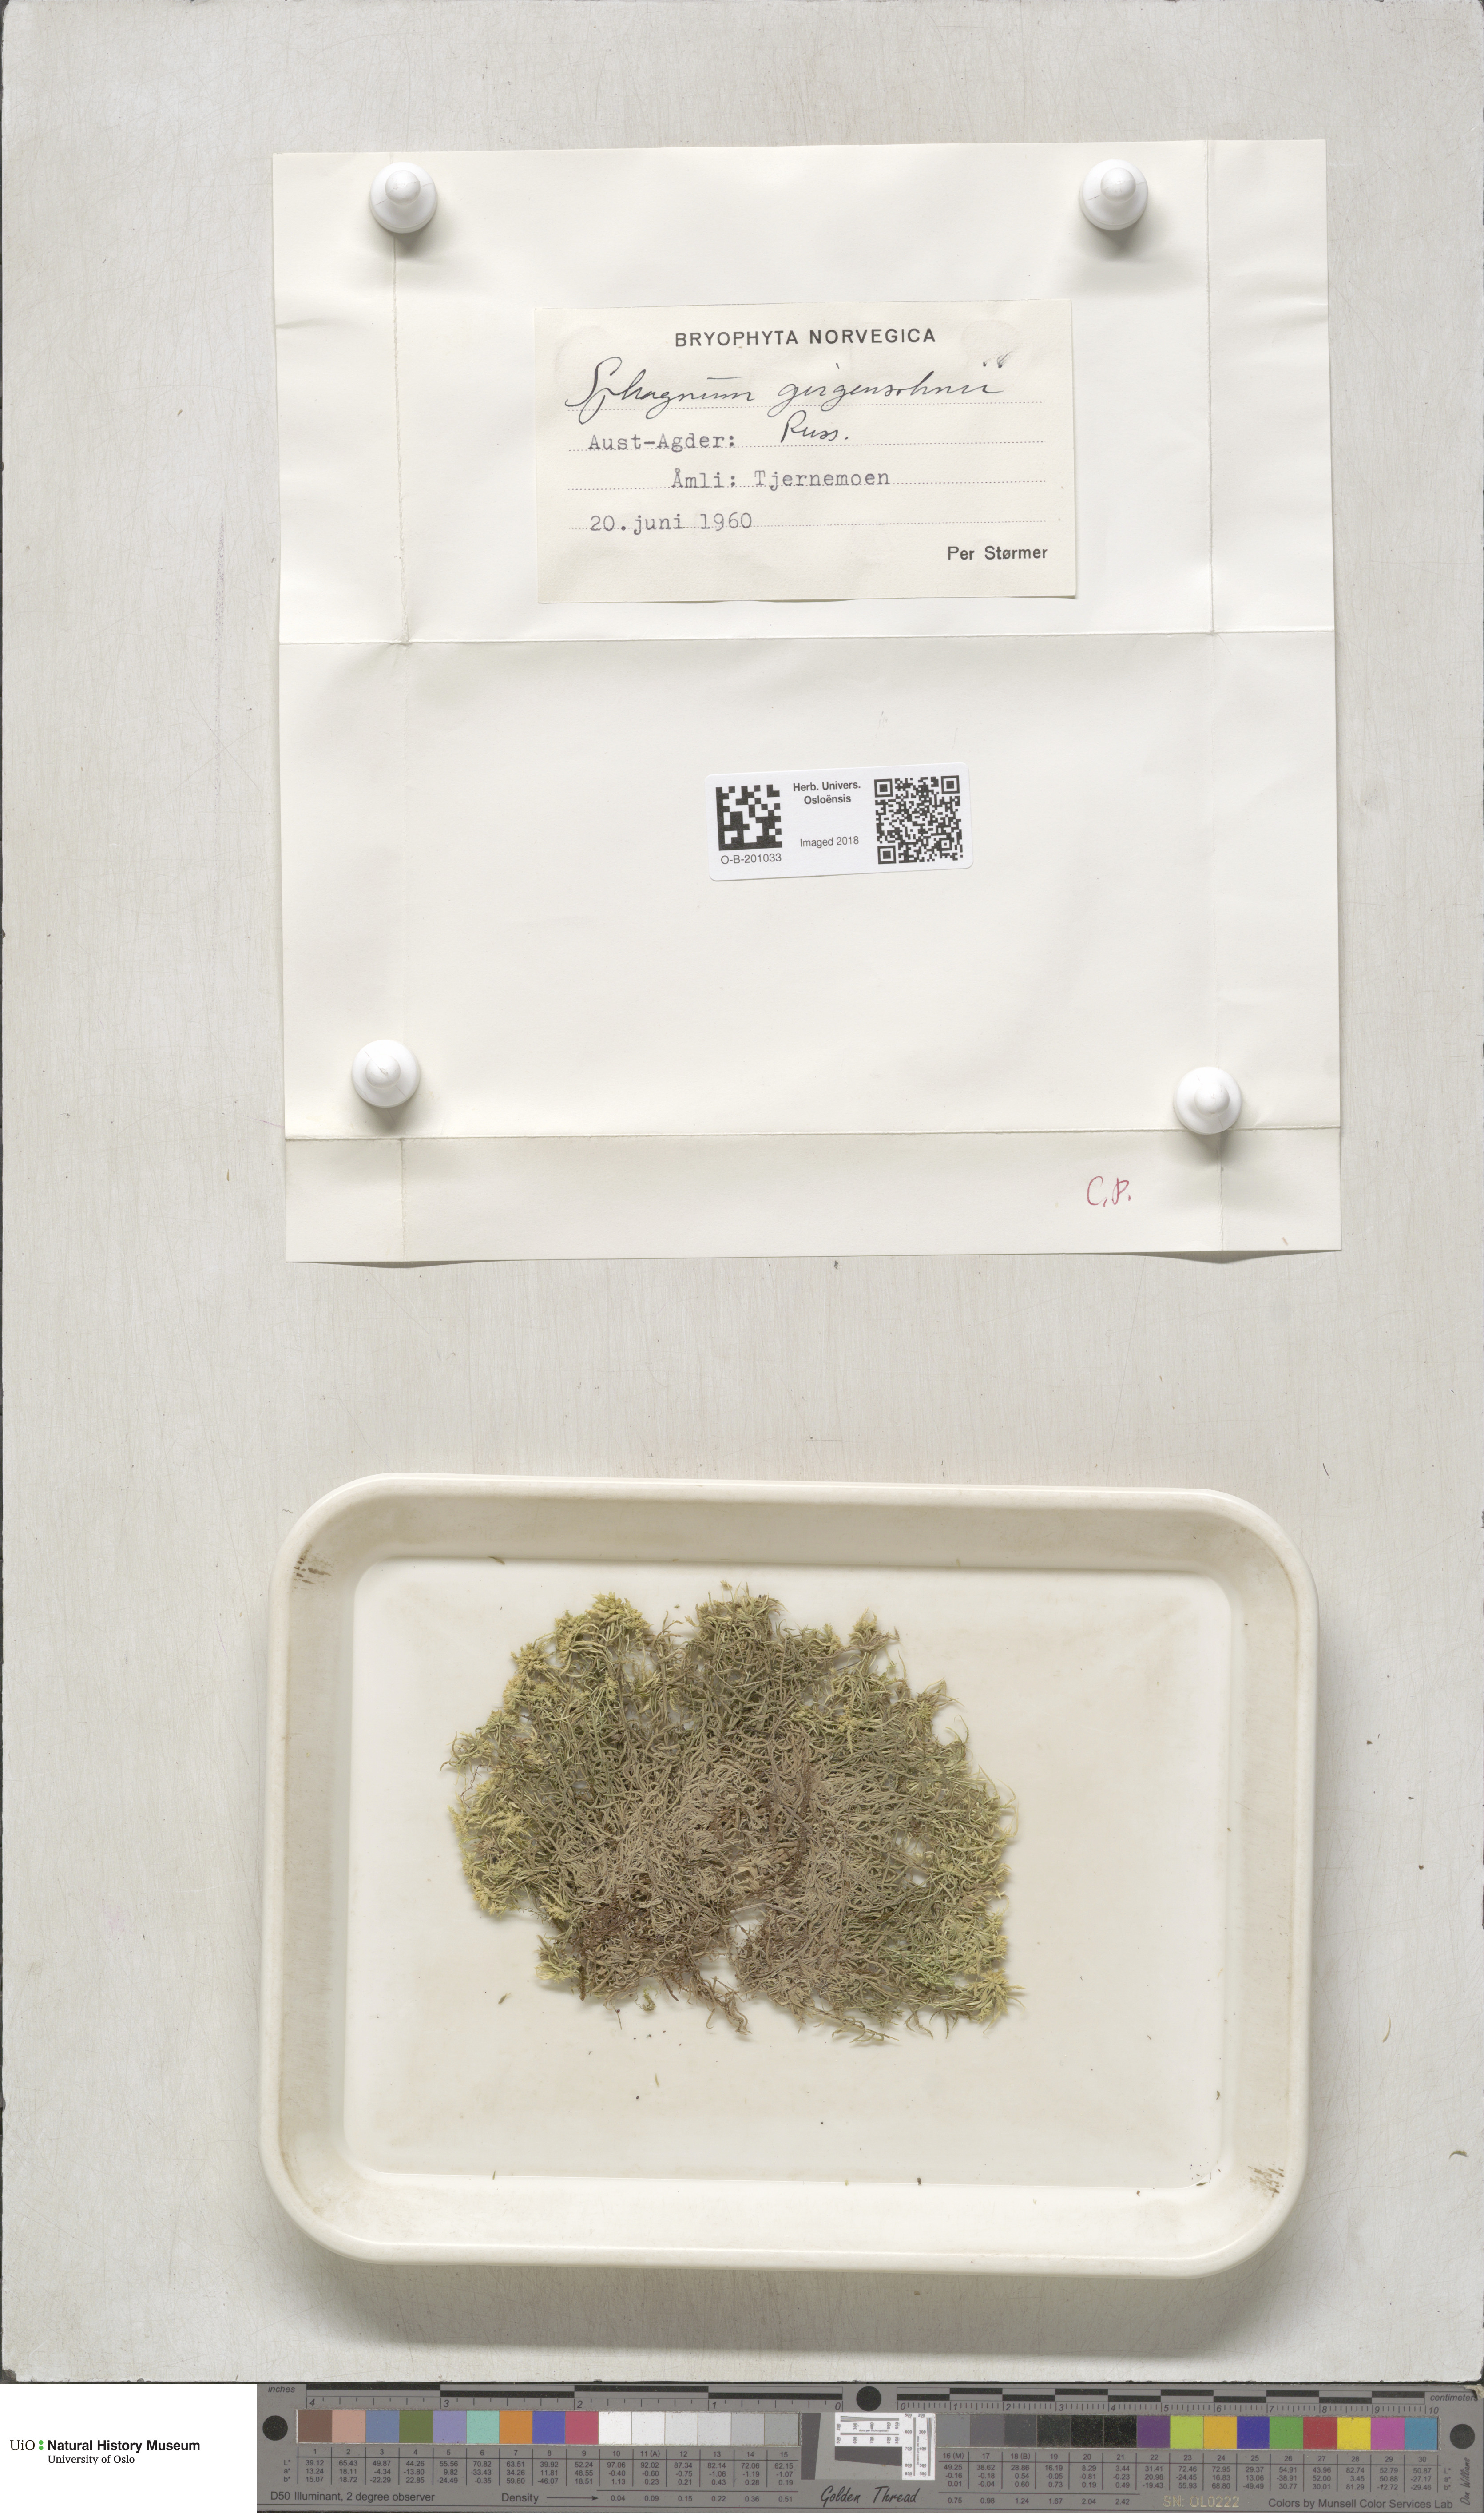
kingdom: Plantae
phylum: Bryophyta
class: Sphagnopsida
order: Sphagnales
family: Sphagnaceae
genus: Sphagnum
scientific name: Sphagnum girgensohnii
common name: Girgensohn's peat moss
